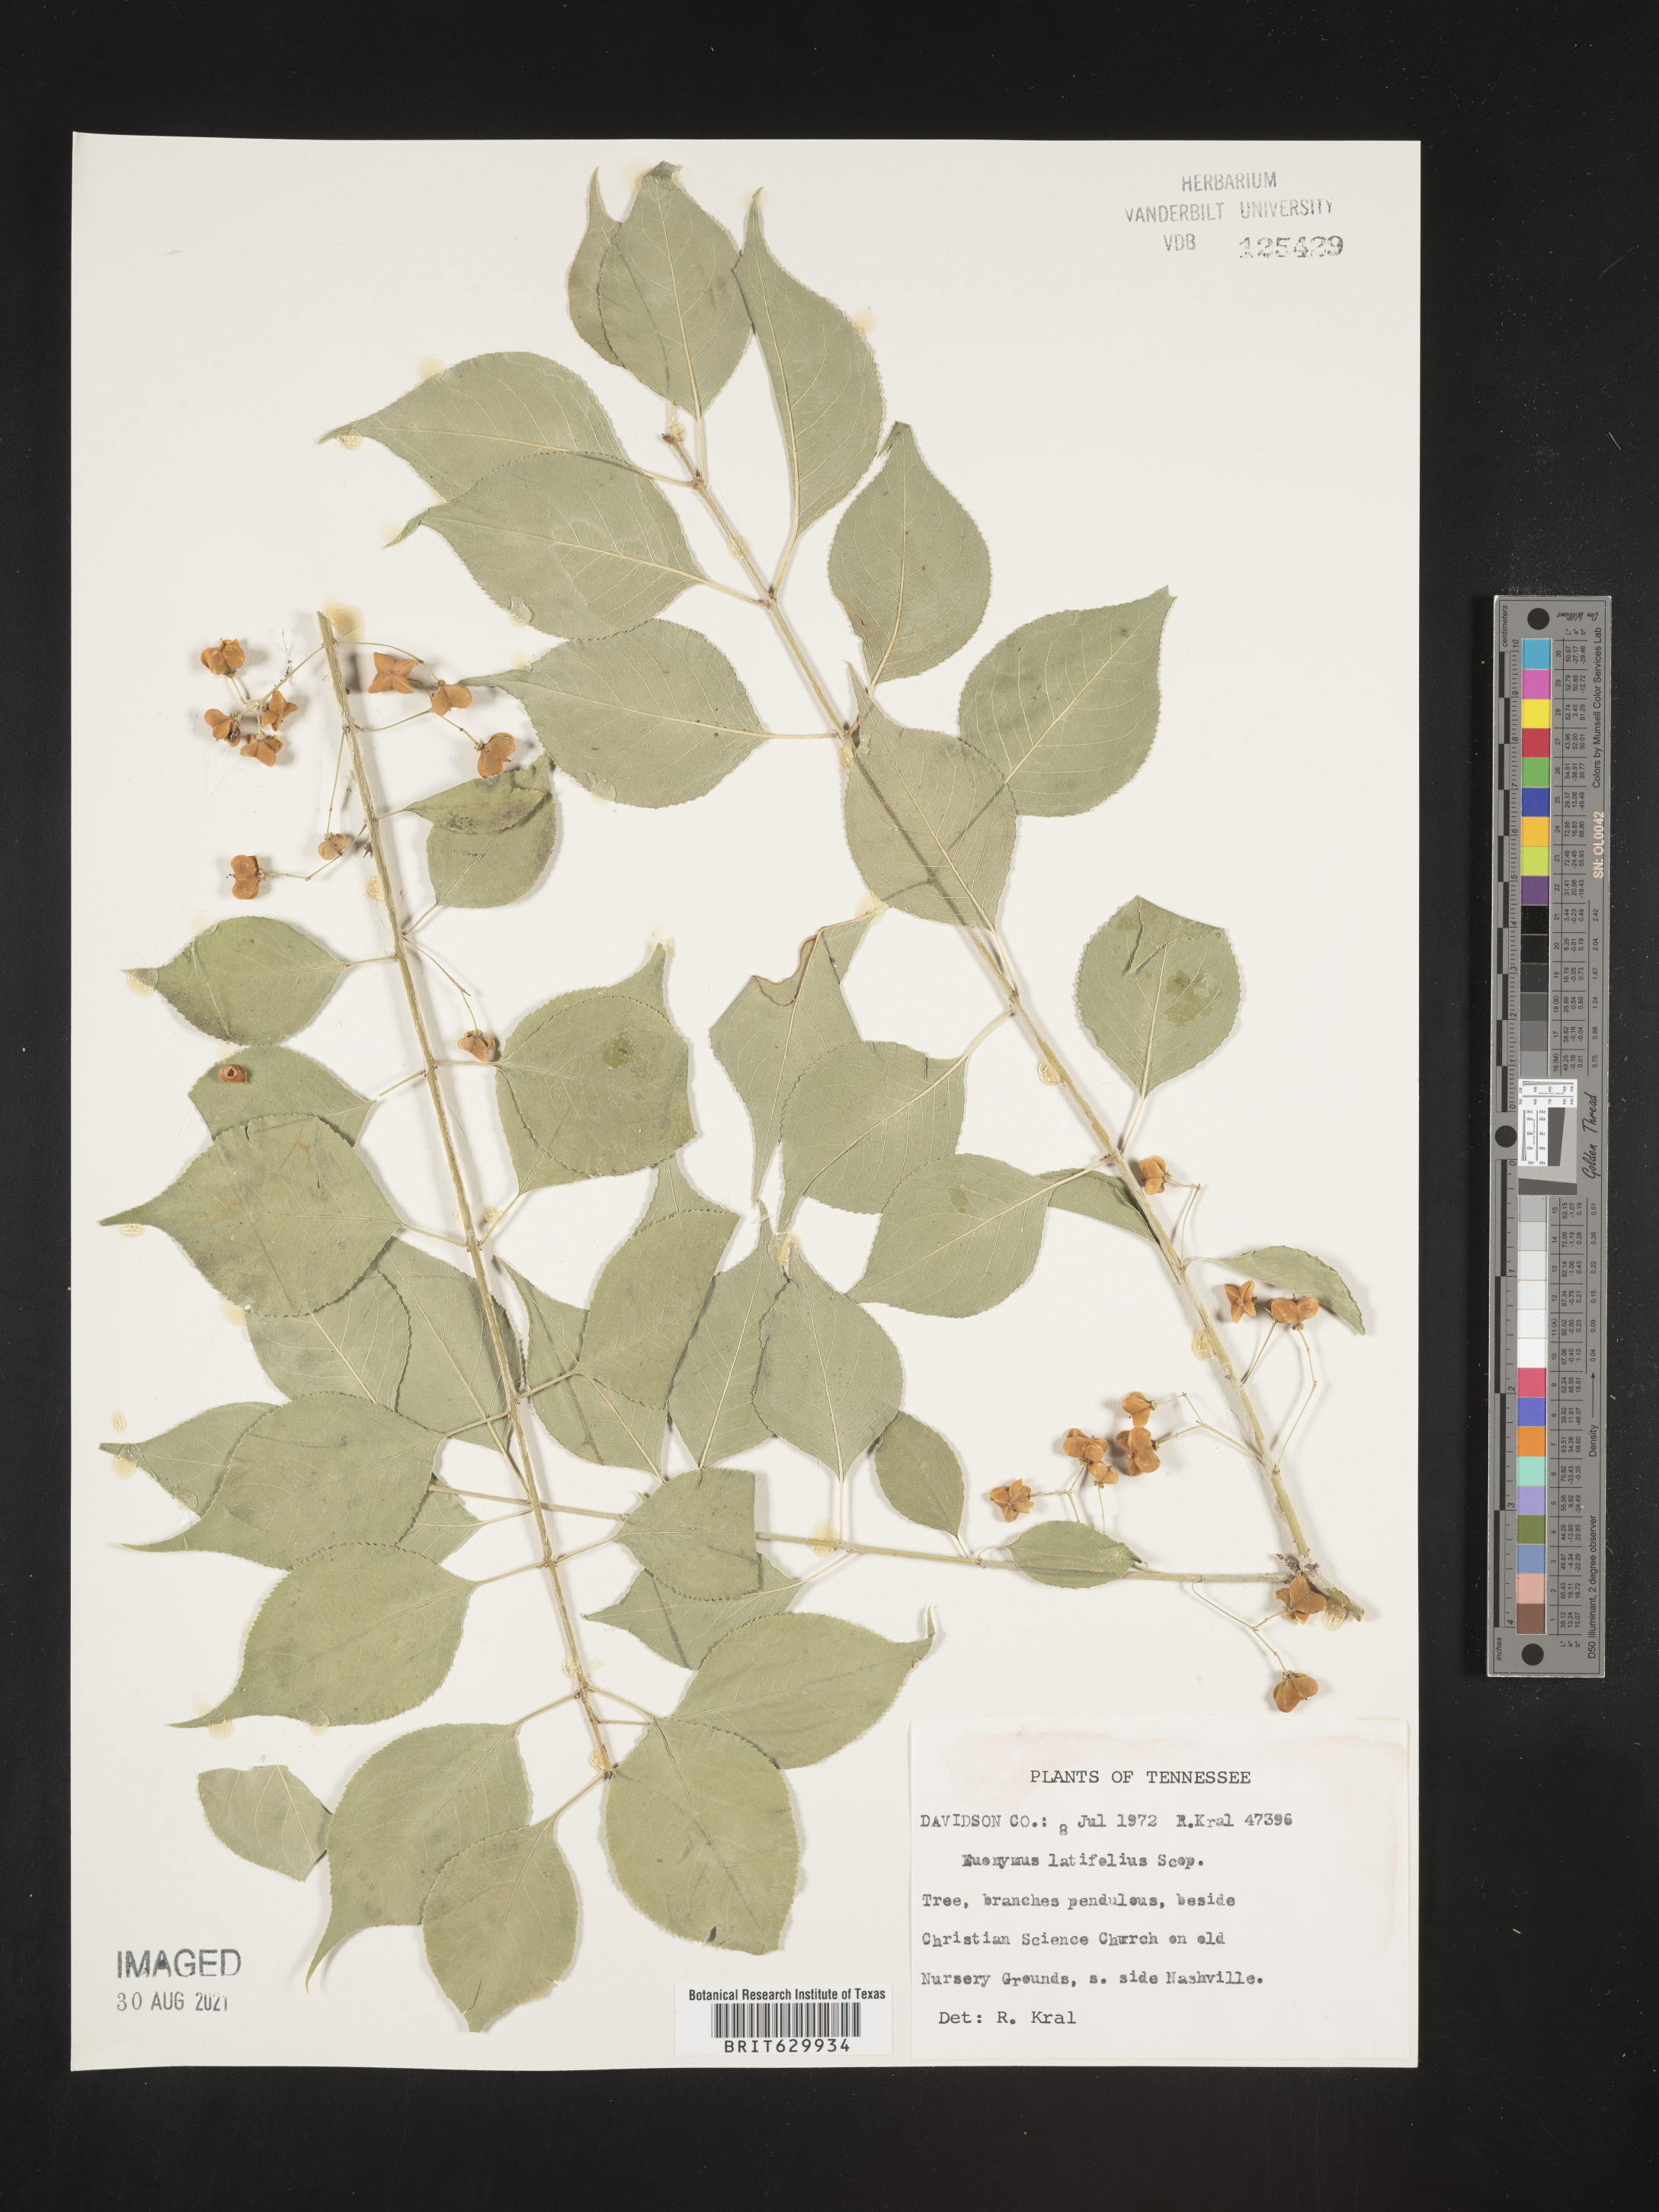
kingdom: Plantae
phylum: Tracheophyta
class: Magnoliopsida
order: Celastrales
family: Celastraceae
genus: Euonymus
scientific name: Euonymus latifolius
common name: Large-leaved spindle
